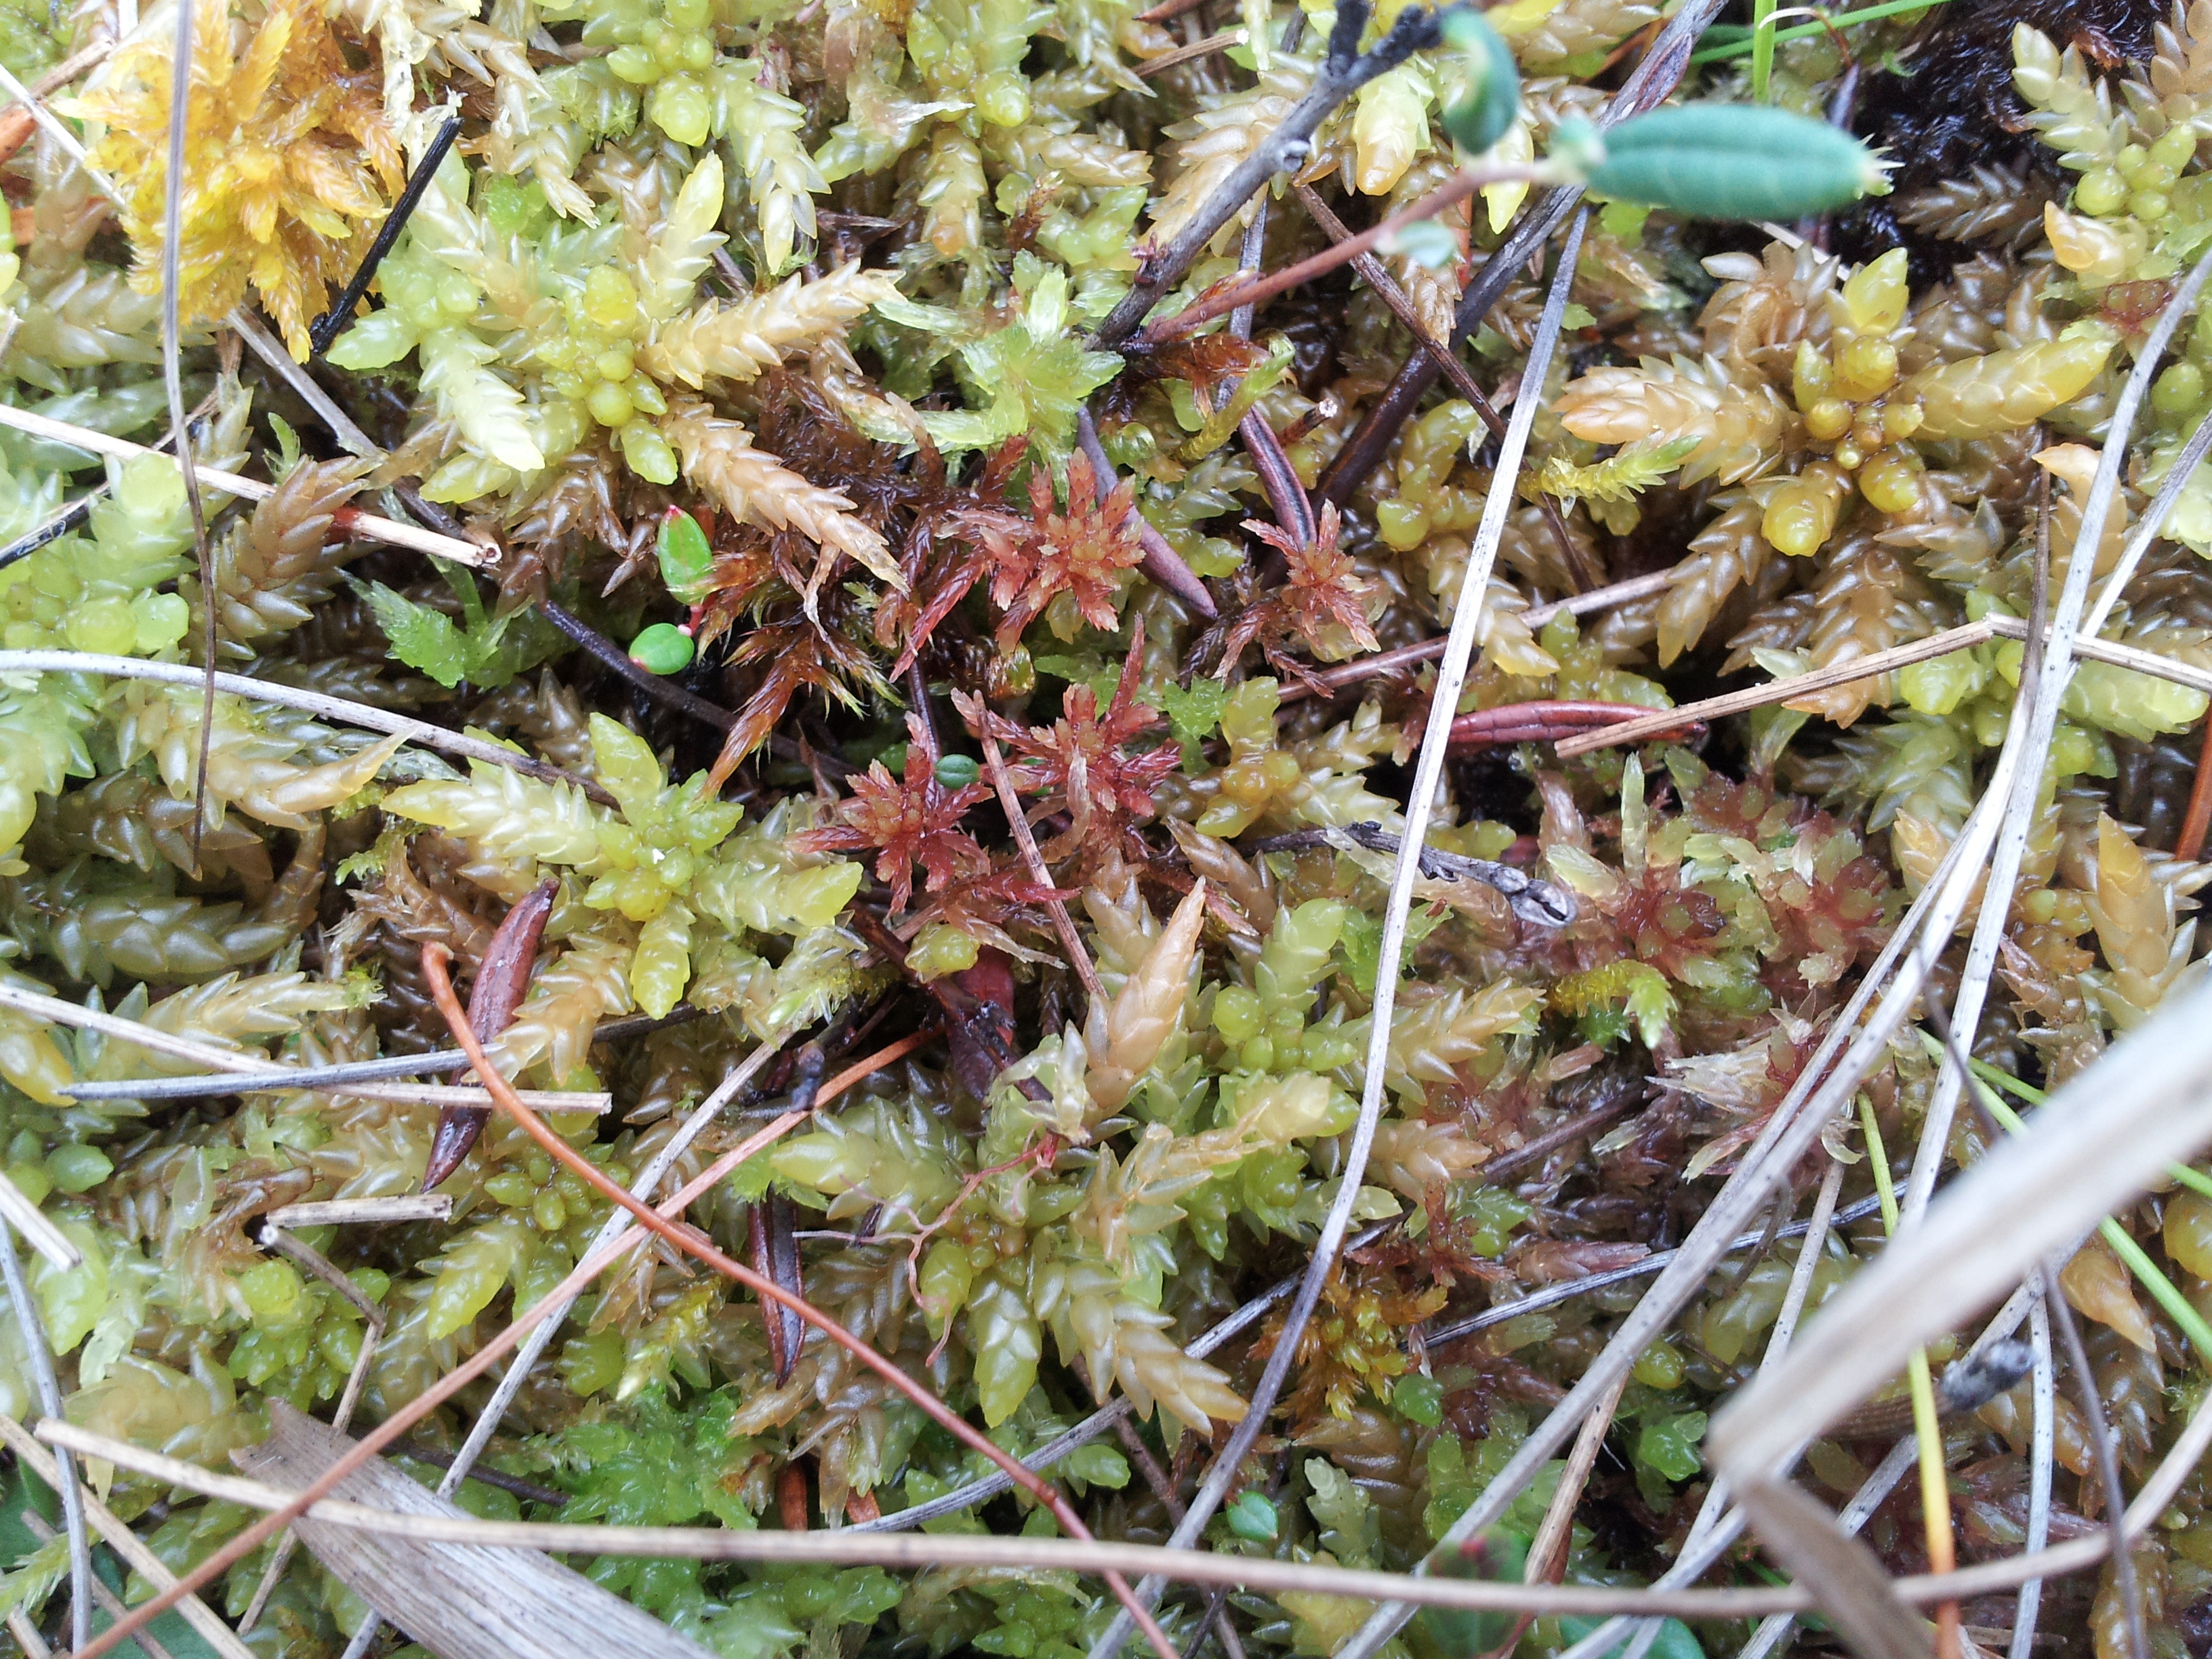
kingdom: Plantae
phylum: Bryophyta
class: Sphagnopsida
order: Sphagnales
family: Sphagnaceae
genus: Sphagnum
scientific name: Sphagnum venustum
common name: Charming peat moss
